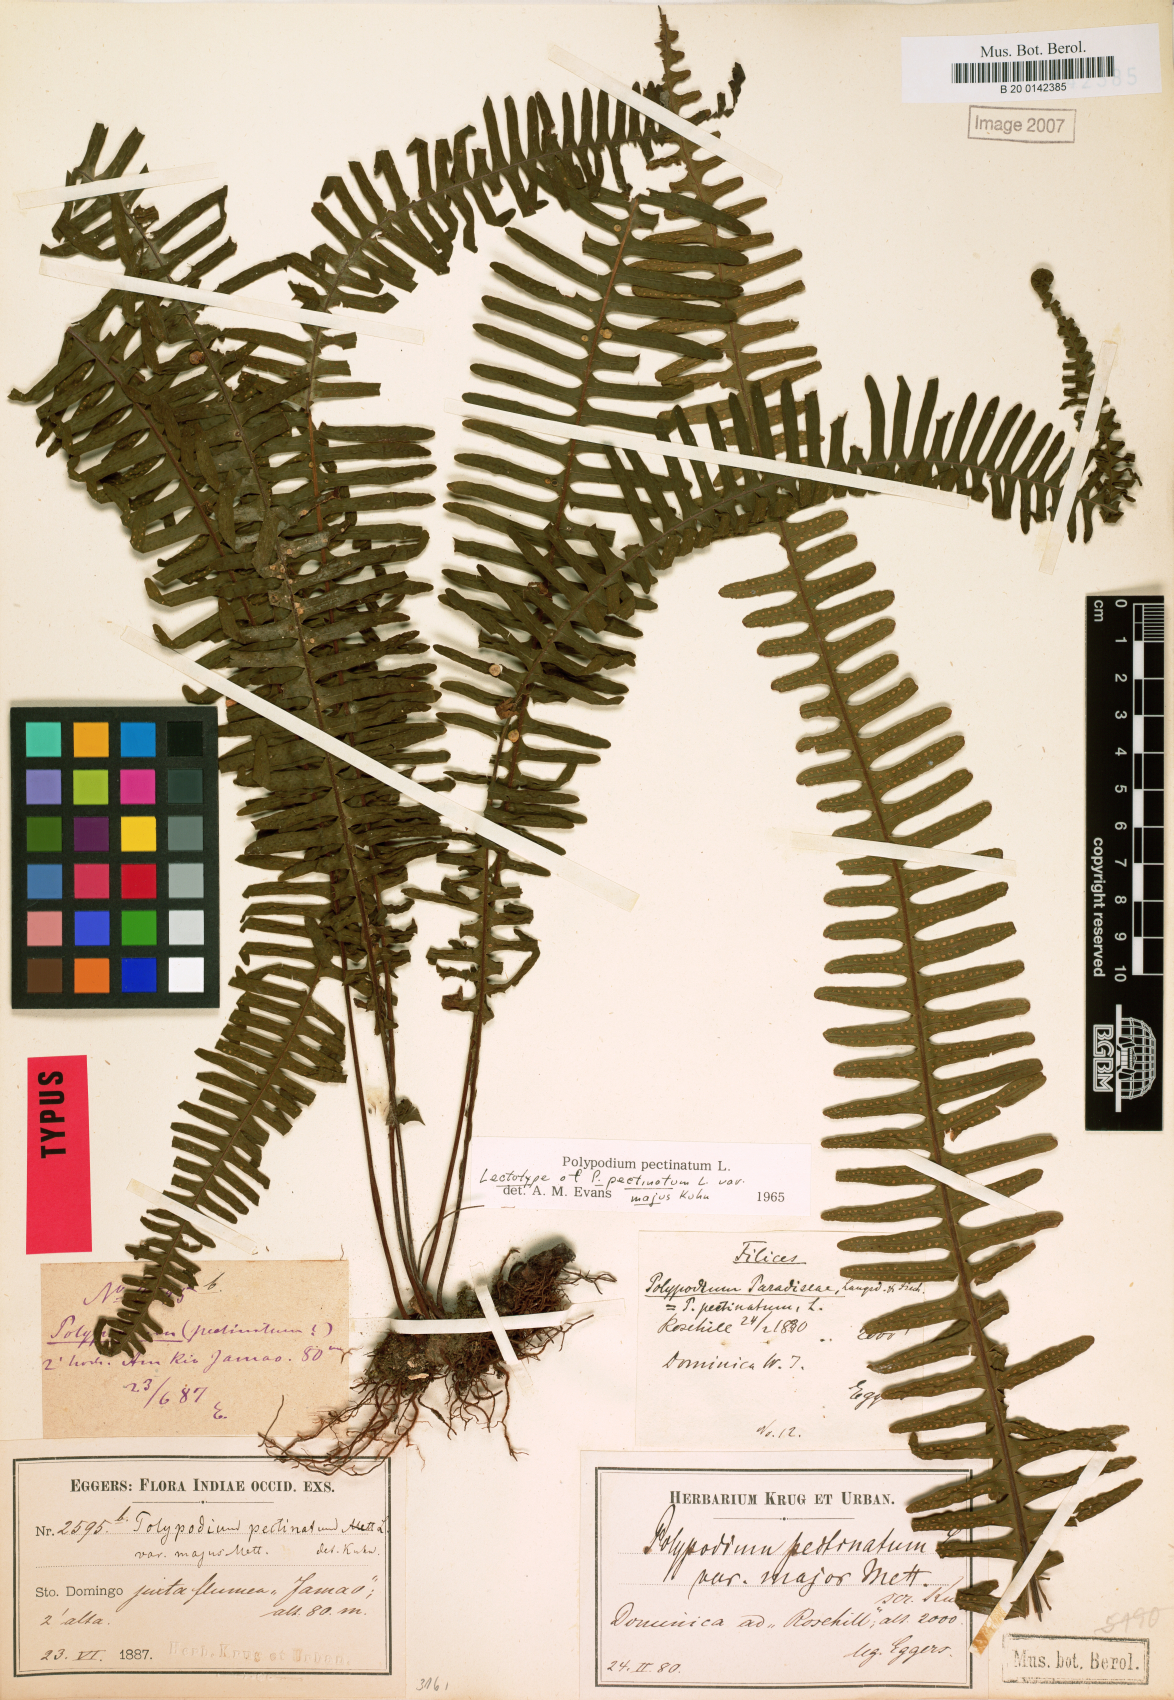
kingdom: Plantae
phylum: Tracheophyta
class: Polypodiopsida
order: Polypodiales
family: Polypodiaceae
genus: Pecluma
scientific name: Pecluma pectinata
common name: Msasa fern
